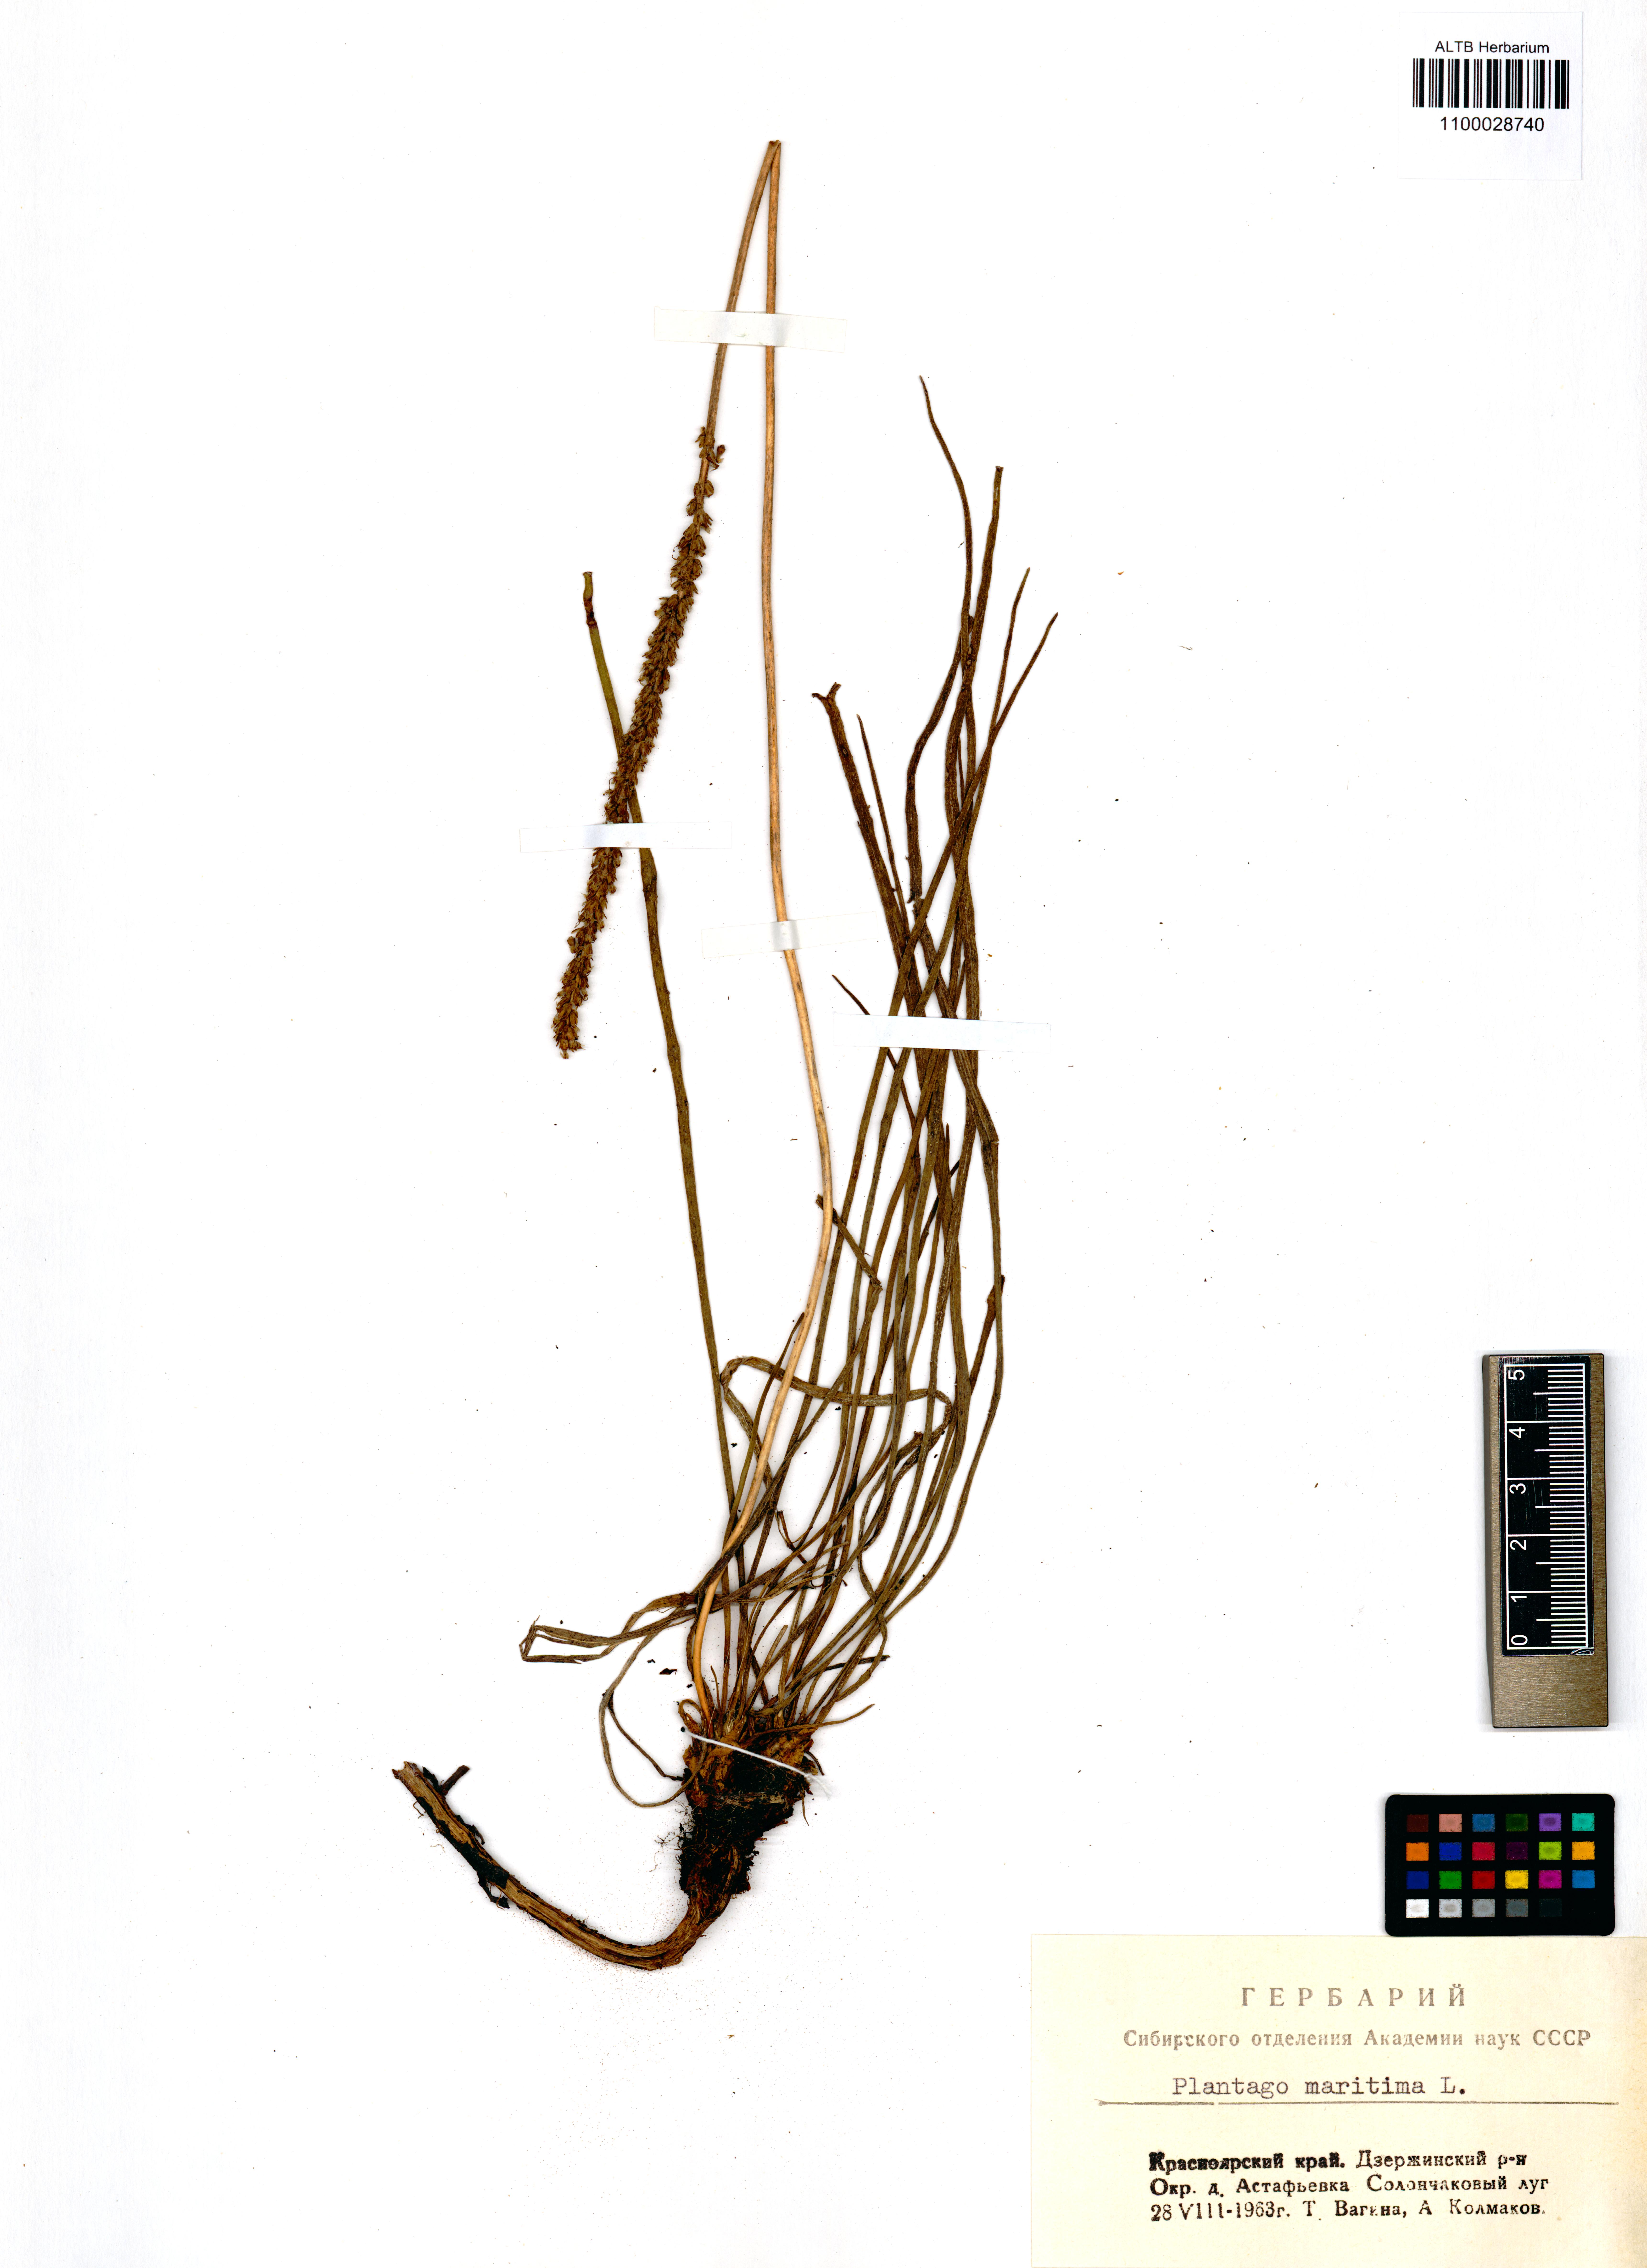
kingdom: Plantae
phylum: Tracheophyta
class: Magnoliopsida
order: Lamiales
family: Plantaginaceae
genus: Plantago
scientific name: Plantago maritima
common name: Sea plantain
